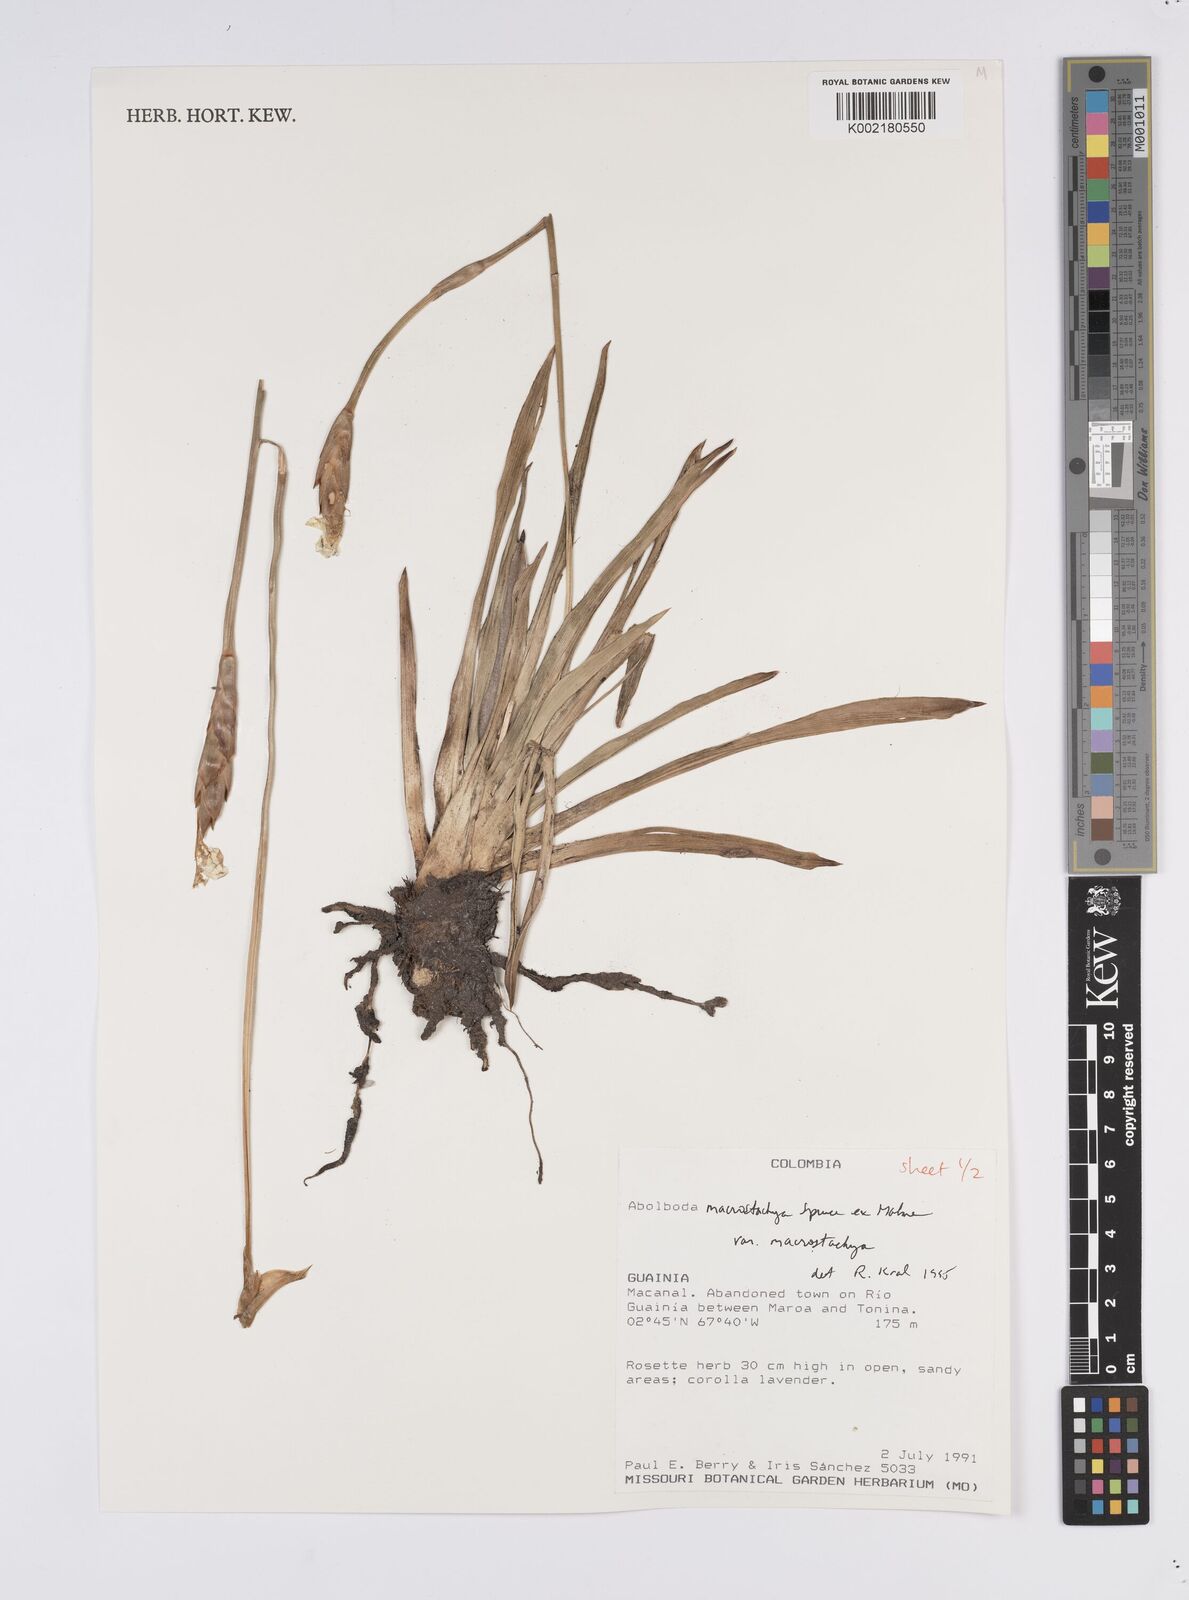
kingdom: Plantae
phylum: Tracheophyta
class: Liliopsida
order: Poales
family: Xyridaceae
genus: Abolboda
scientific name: Abolboda macrostachya
